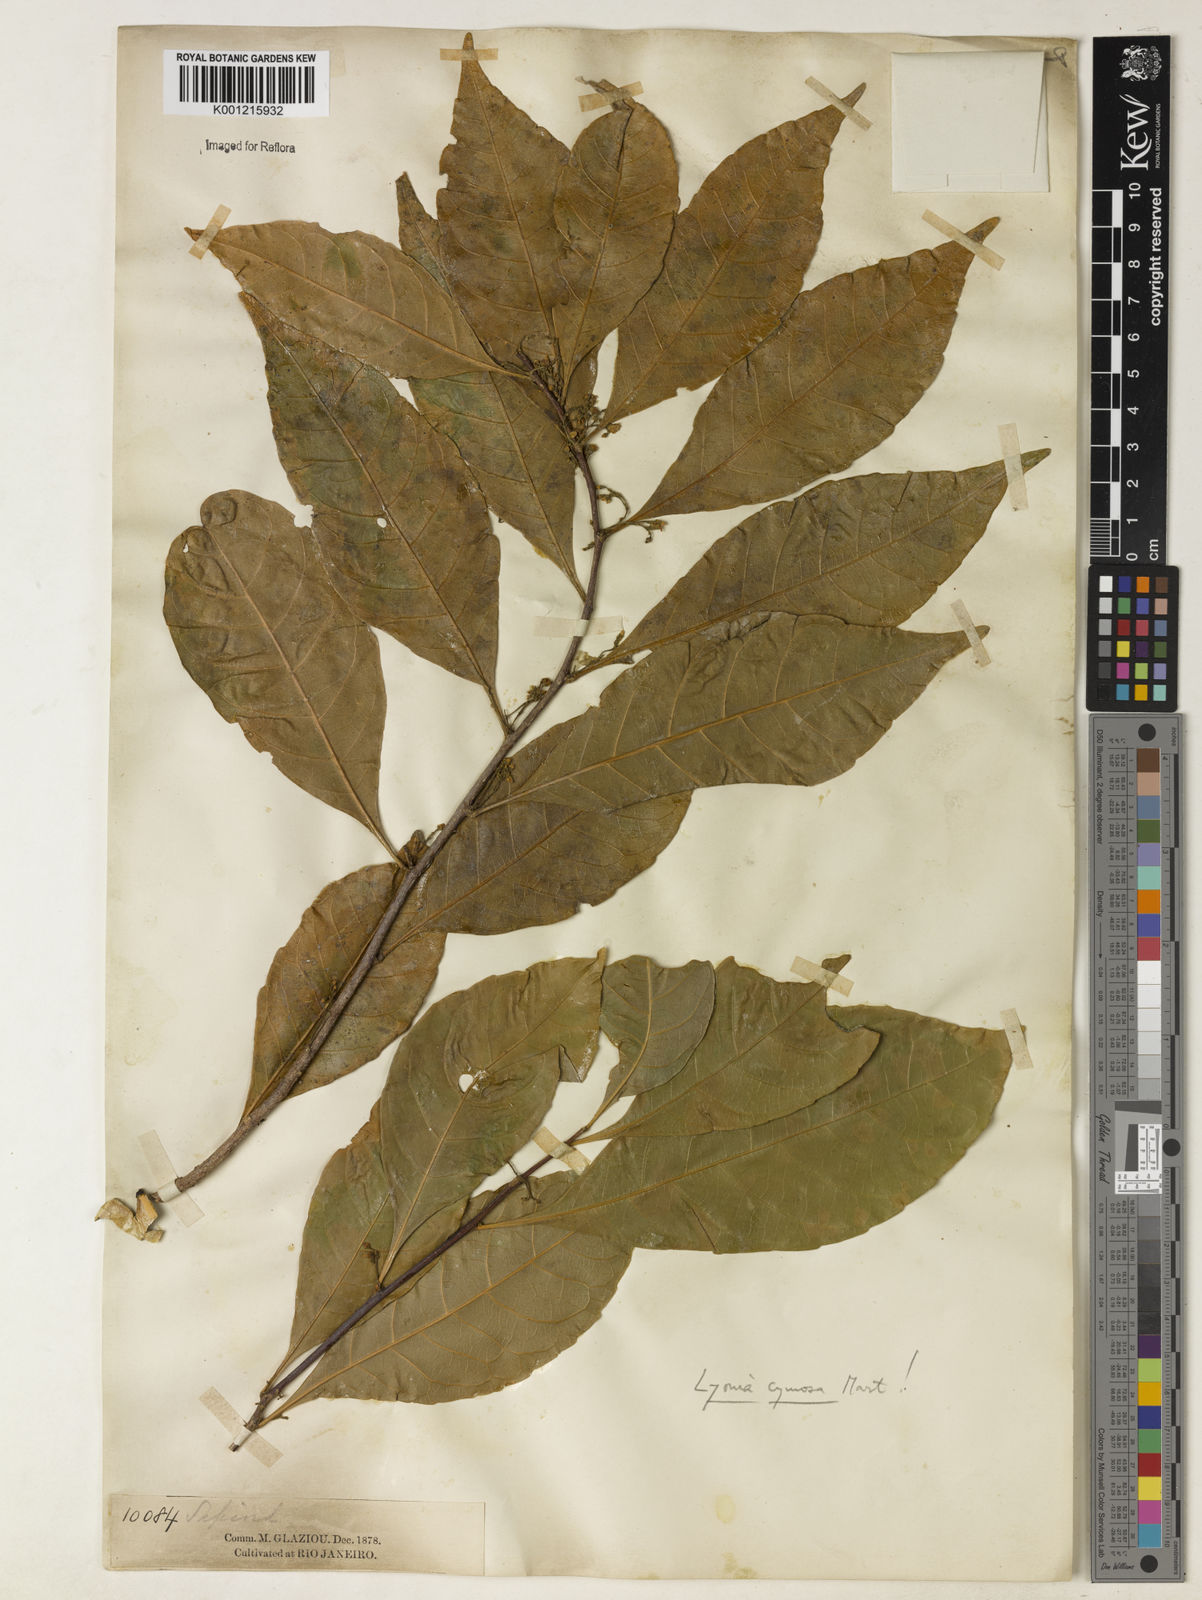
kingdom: Plantae
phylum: Tracheophyta
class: Magnoliopsida
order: Malpighiales
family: Violaceae
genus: Leonia
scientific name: Leonia cymosa
